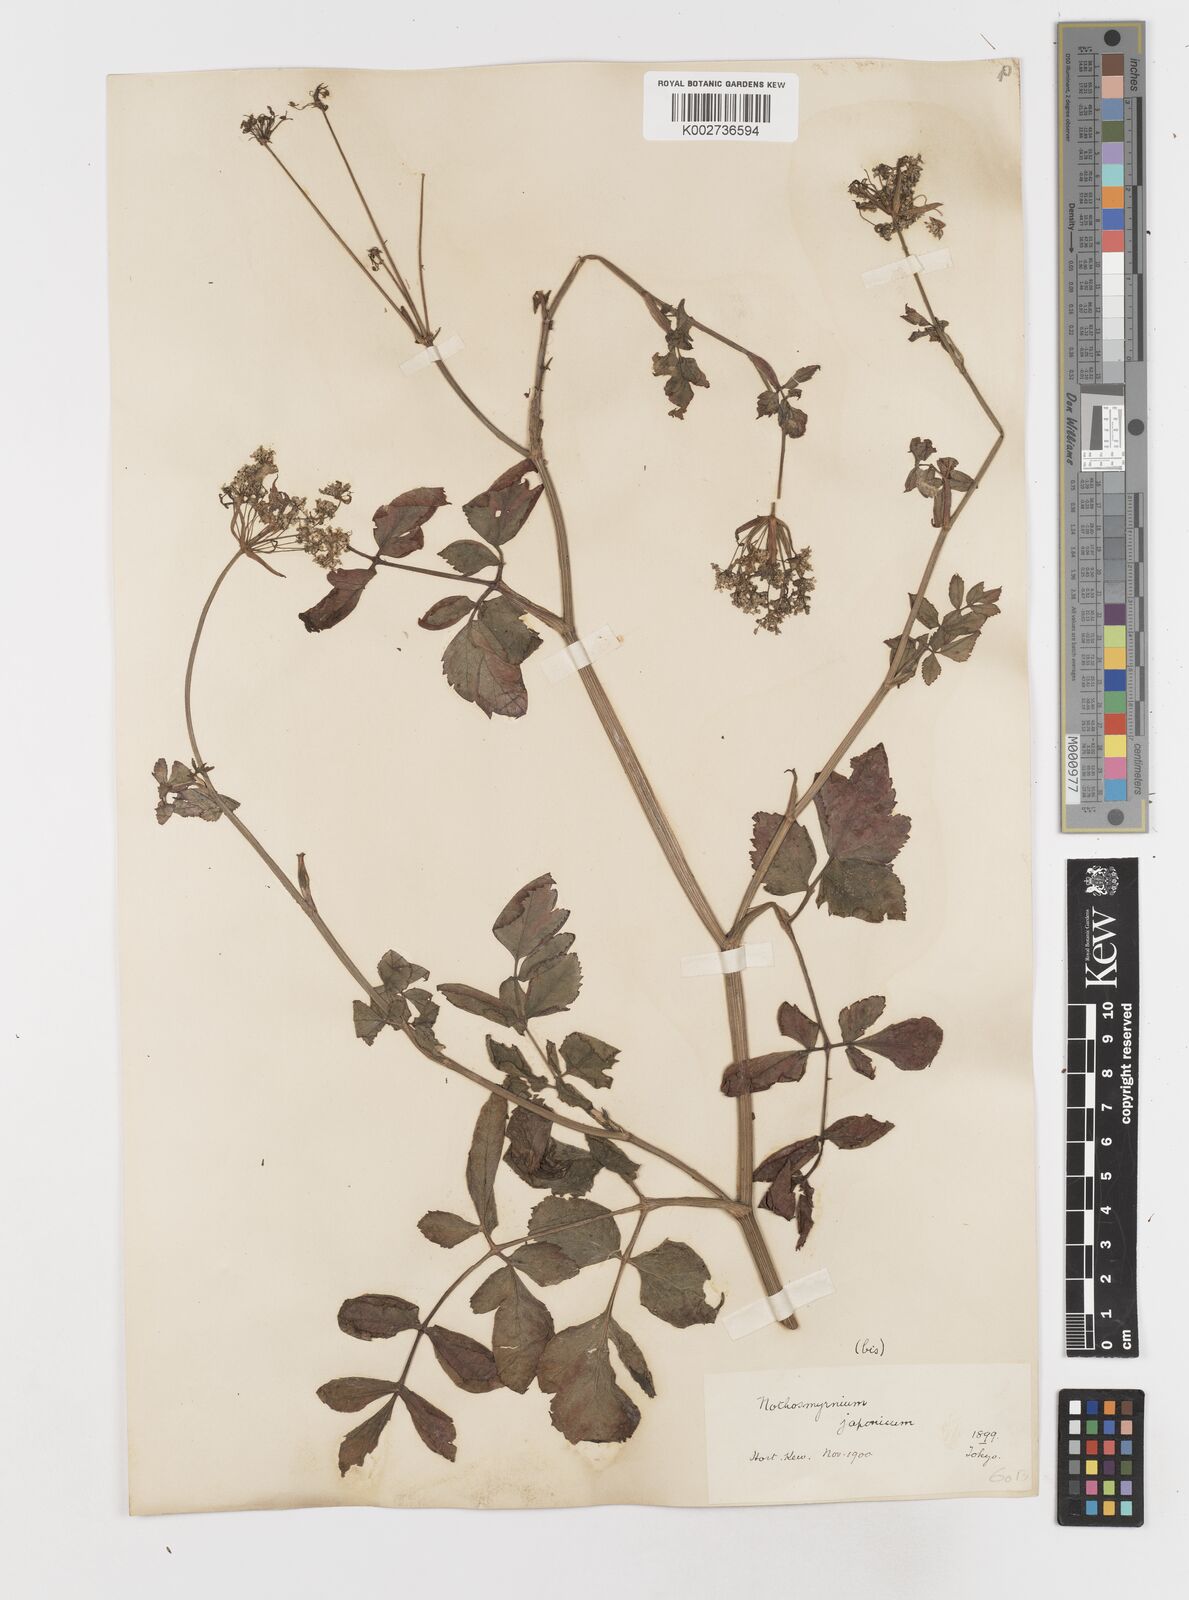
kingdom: Plantae
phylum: Tracheophyta
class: Magnoliopsida
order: Apiales
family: Apiaceae
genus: Nothosmyrnium
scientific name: Nothosmyrnium japonicum
